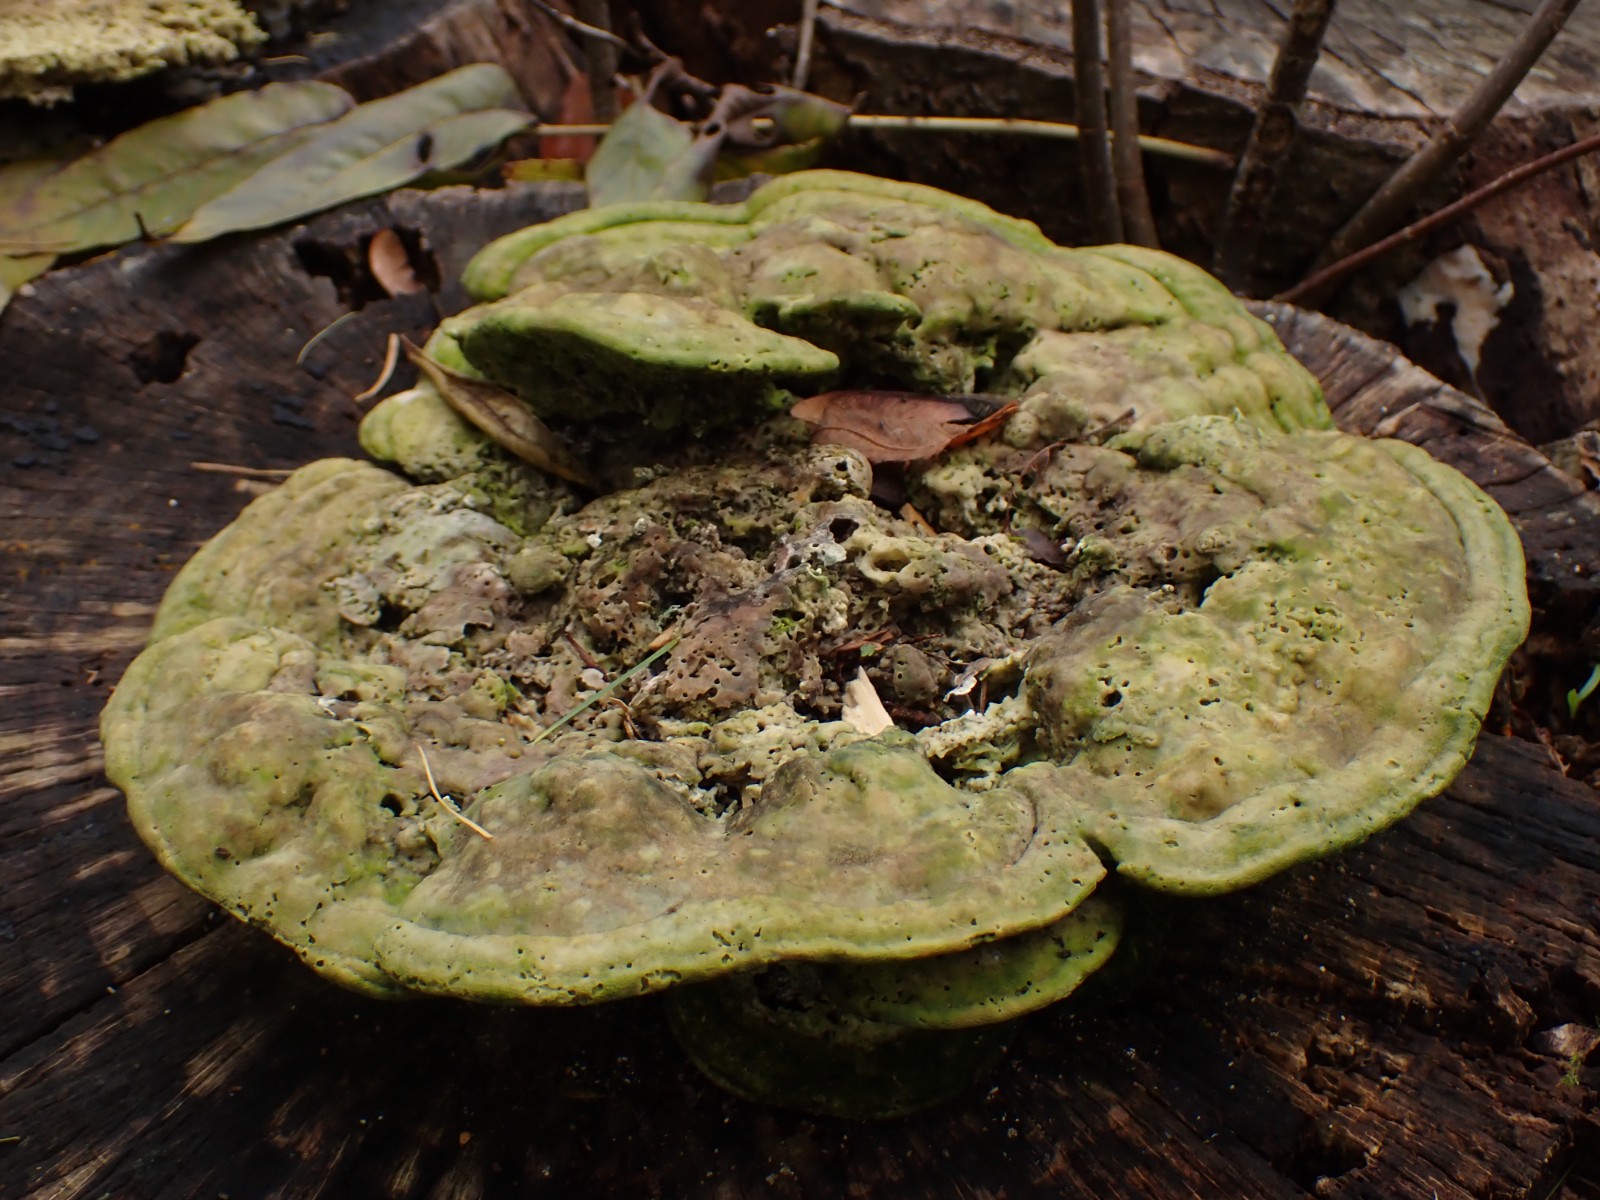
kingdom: Fungi
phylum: Basidiomycota
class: Agaricomycetes
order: Polyporales
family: Polyporaceae
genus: Trametes
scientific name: Trametes gibbosa
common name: puklet læderporesvamp
